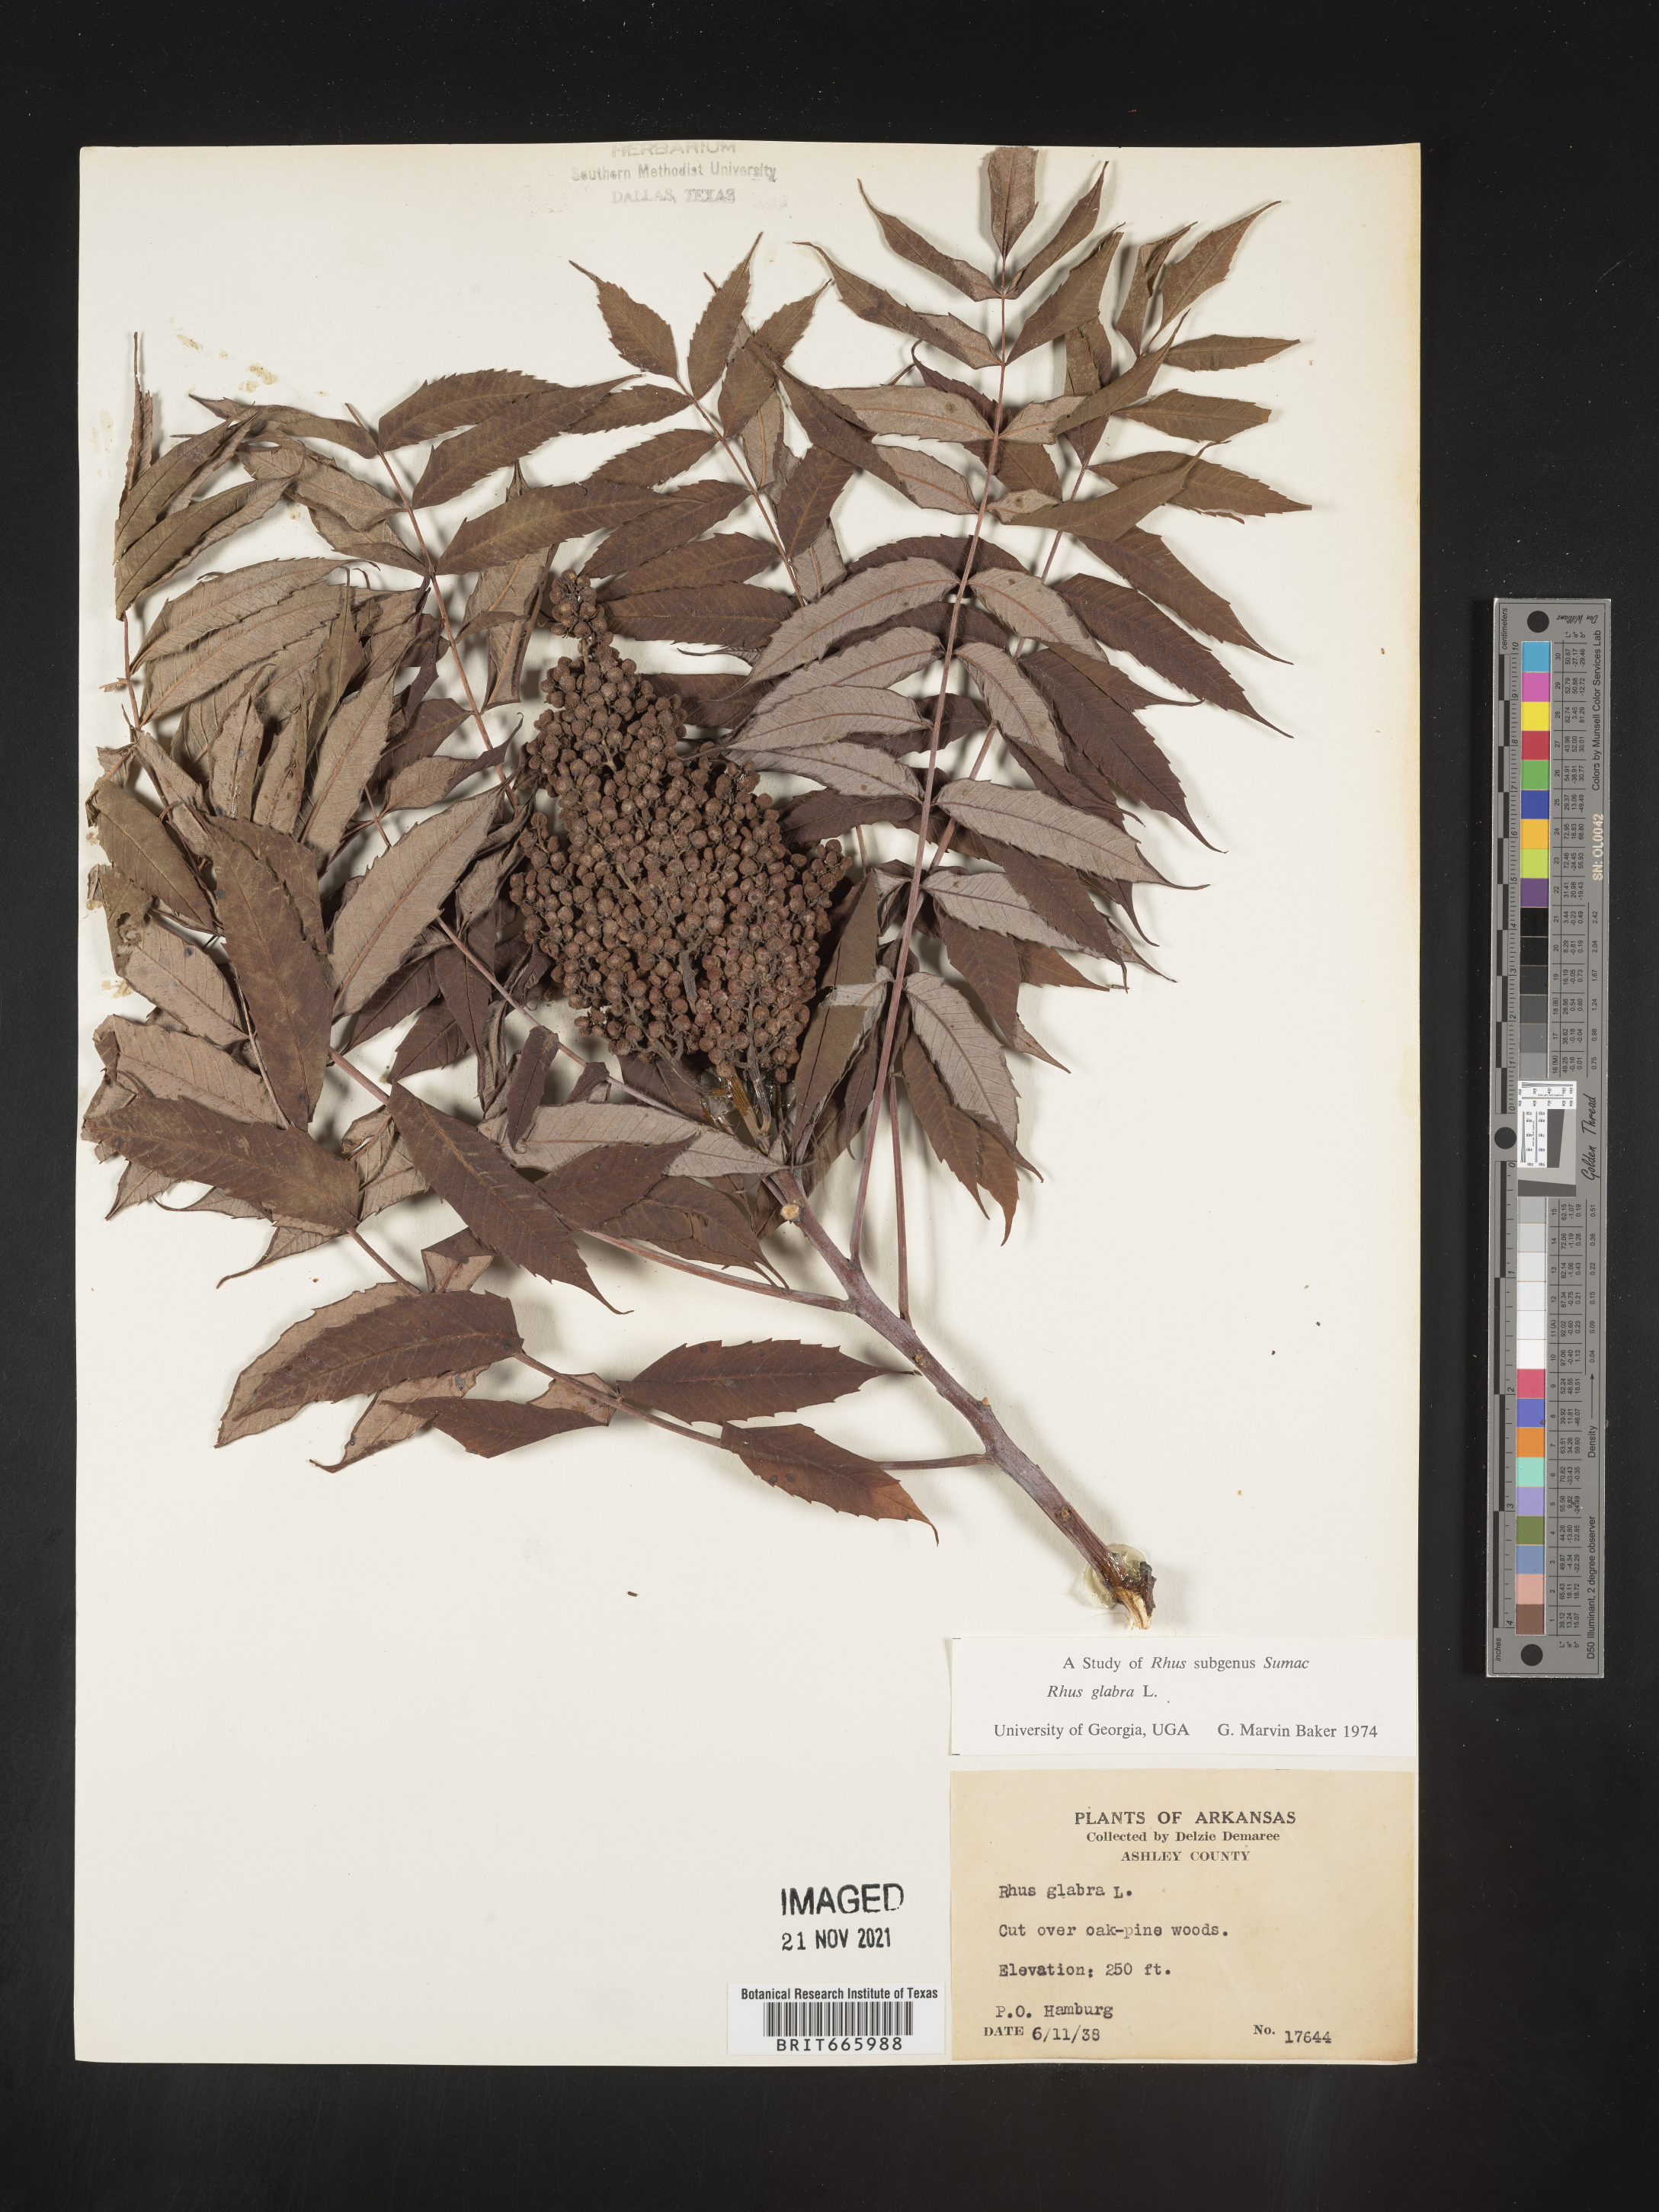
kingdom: Plantae
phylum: Tracheophyta
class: Magnoliopsida
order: Sapindales
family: Anacardiaceae
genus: Rhus
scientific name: Rhus glabra
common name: Scarlet sumac
